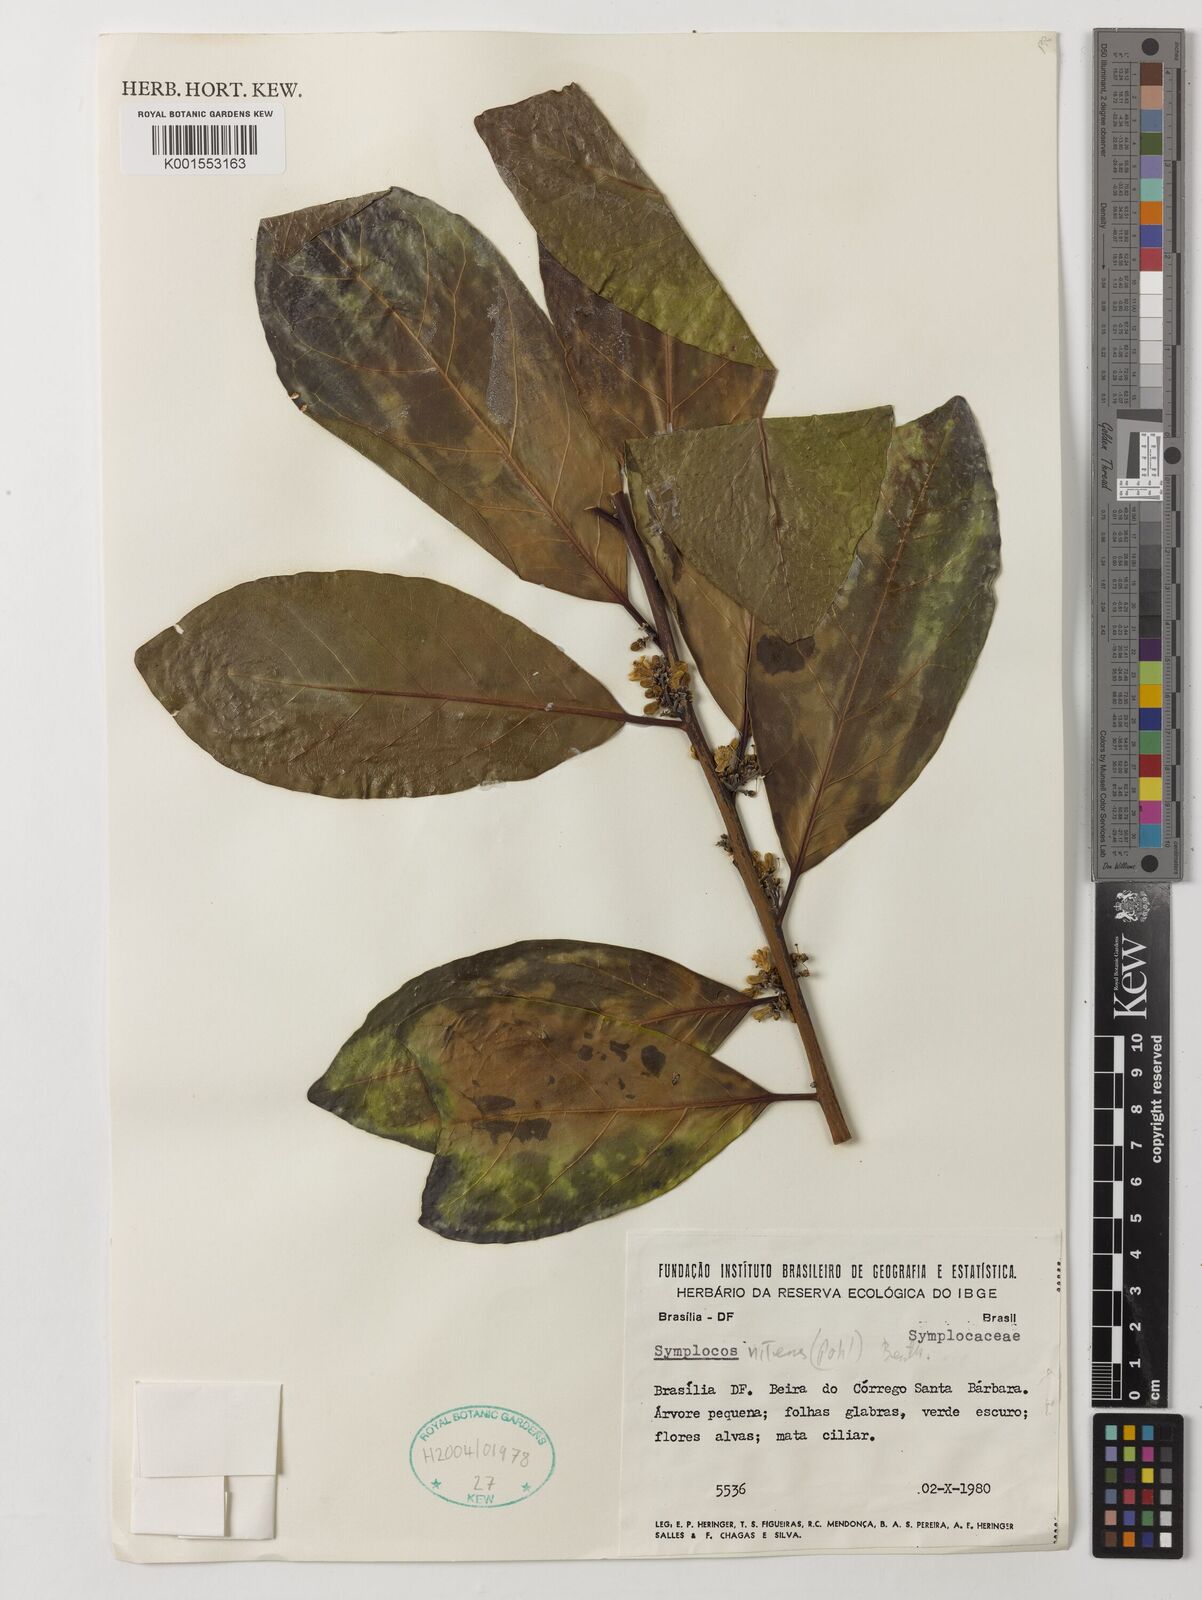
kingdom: Plantae
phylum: Tracheophyta
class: Magnoliopsida
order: Ericales
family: Symplocaceae
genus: Symplocos
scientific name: Symplocos nitens
